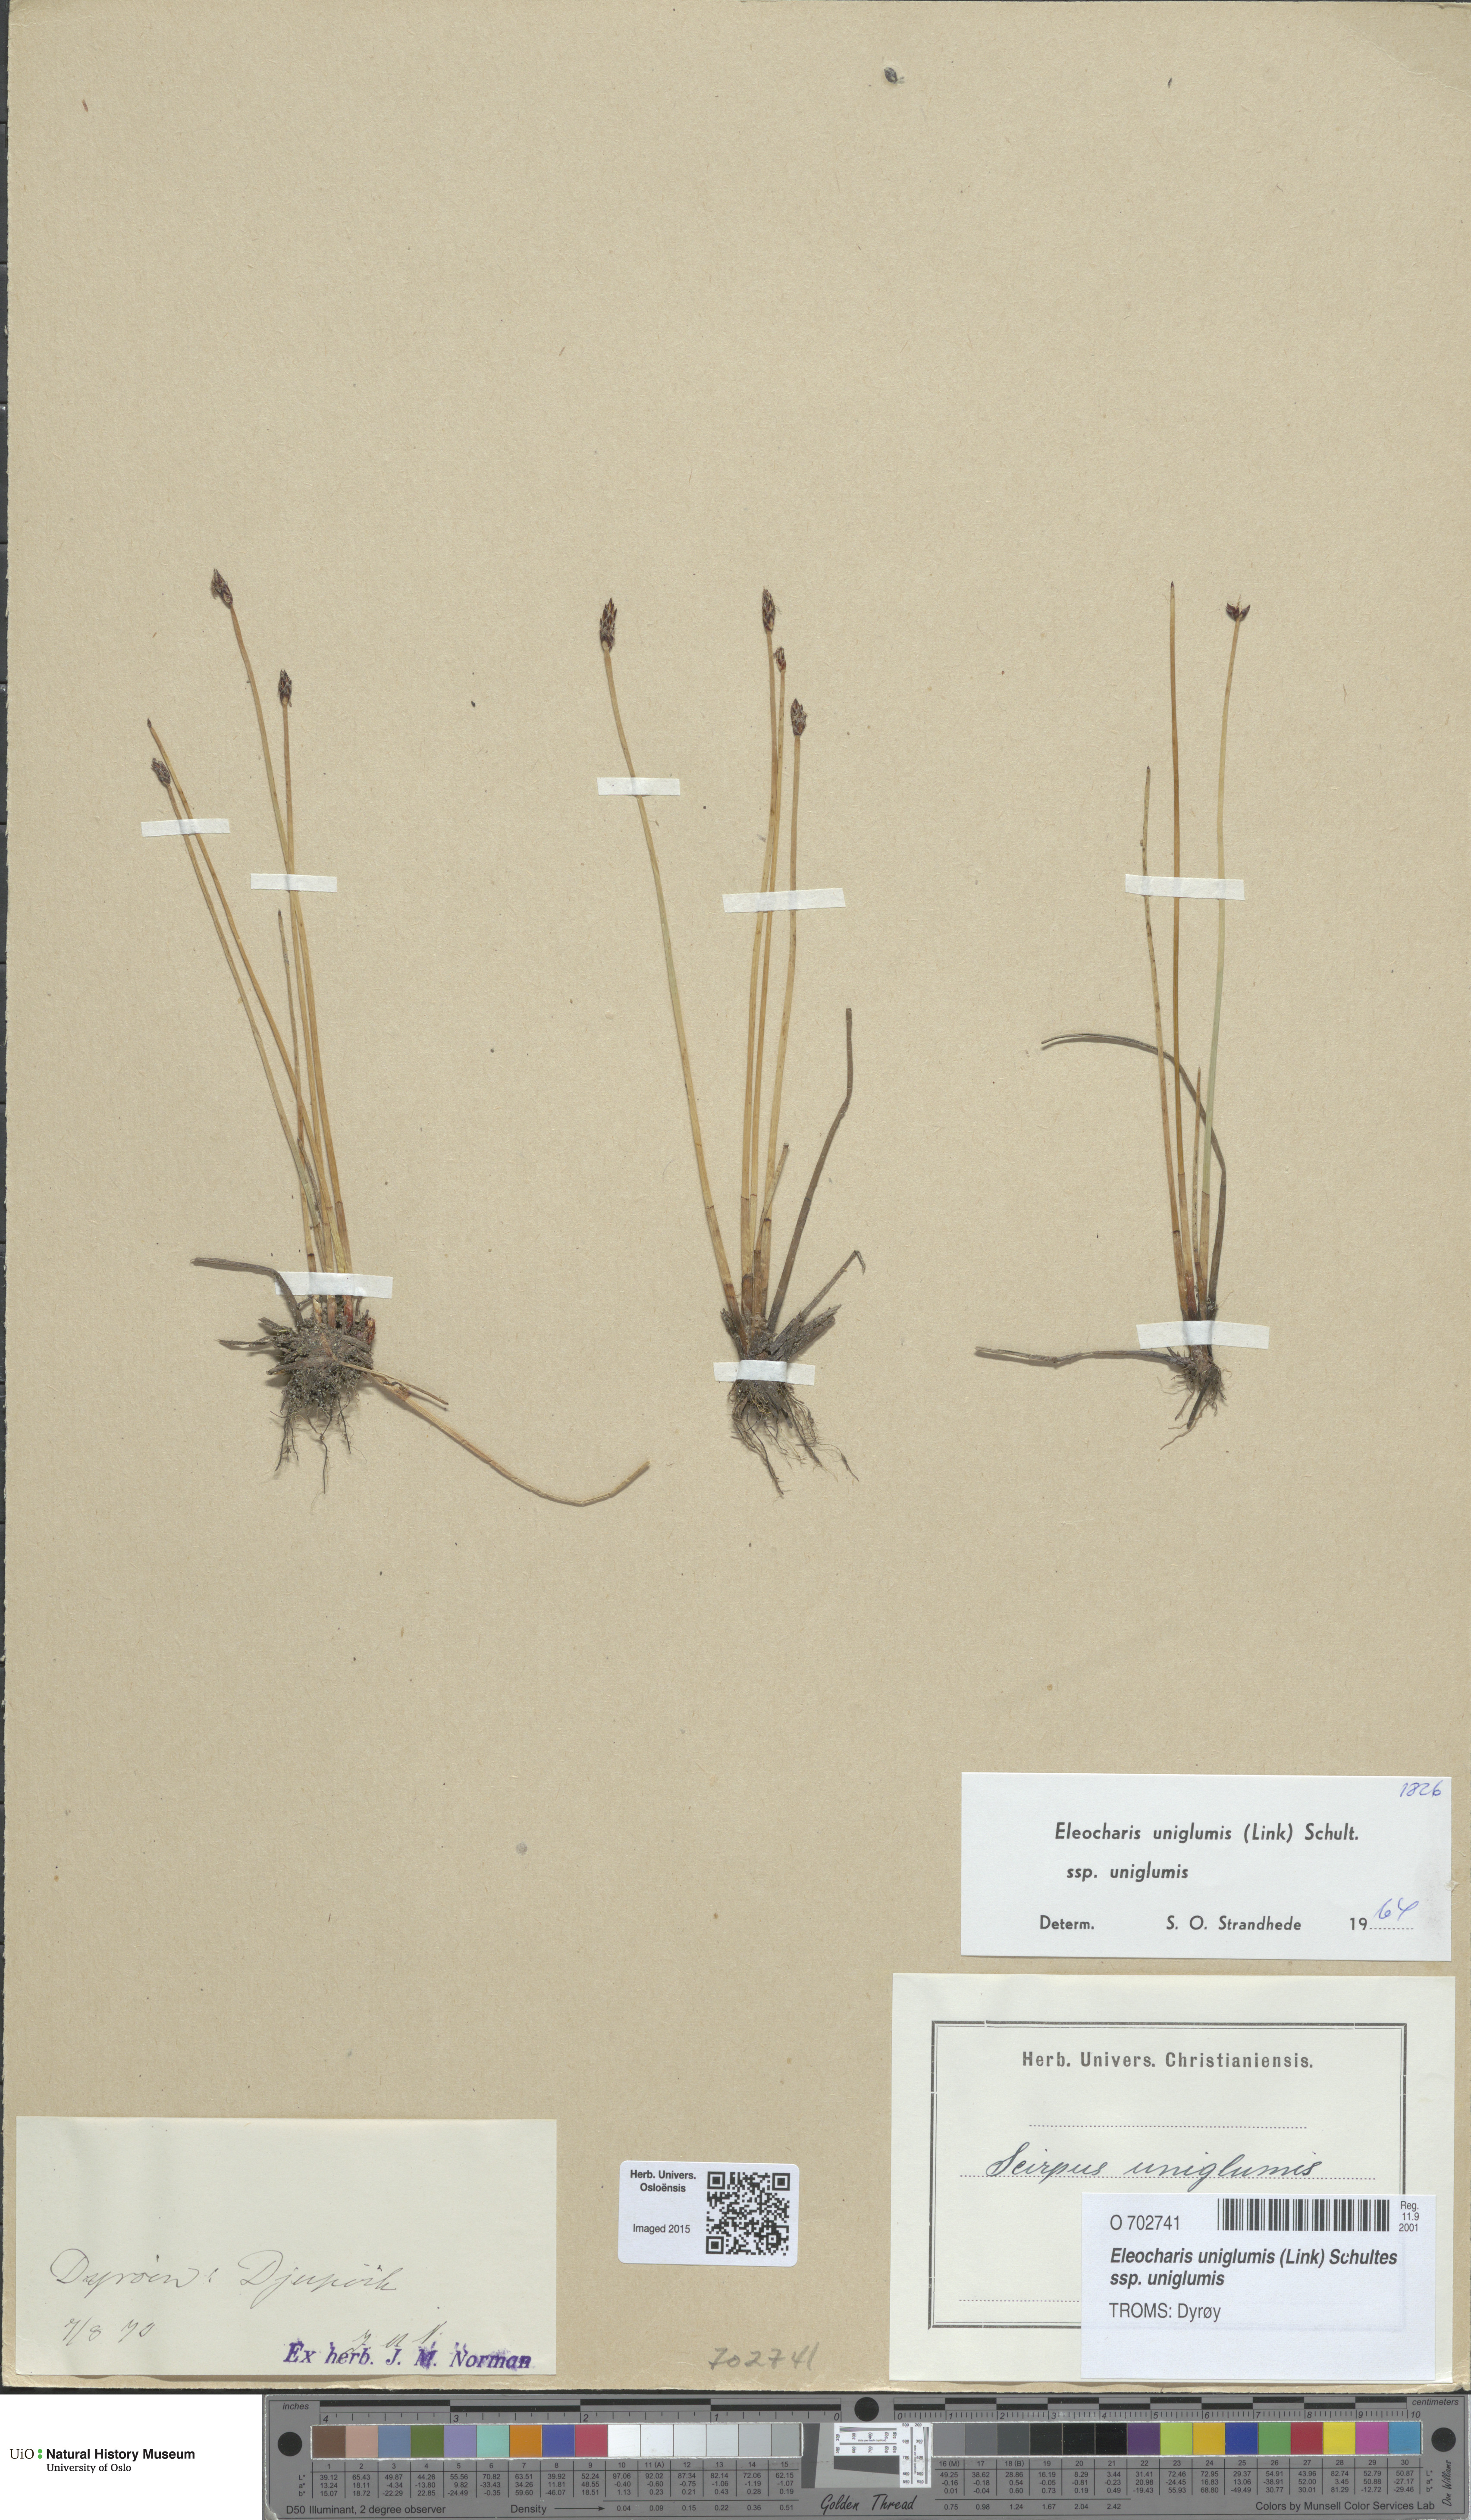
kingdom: Plantae
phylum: Tracheophyta
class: Liliopsida
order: Poales
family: Cyperaceae
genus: Eleocharis
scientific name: Eleocharis uniglumis
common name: Slender spike-rush
